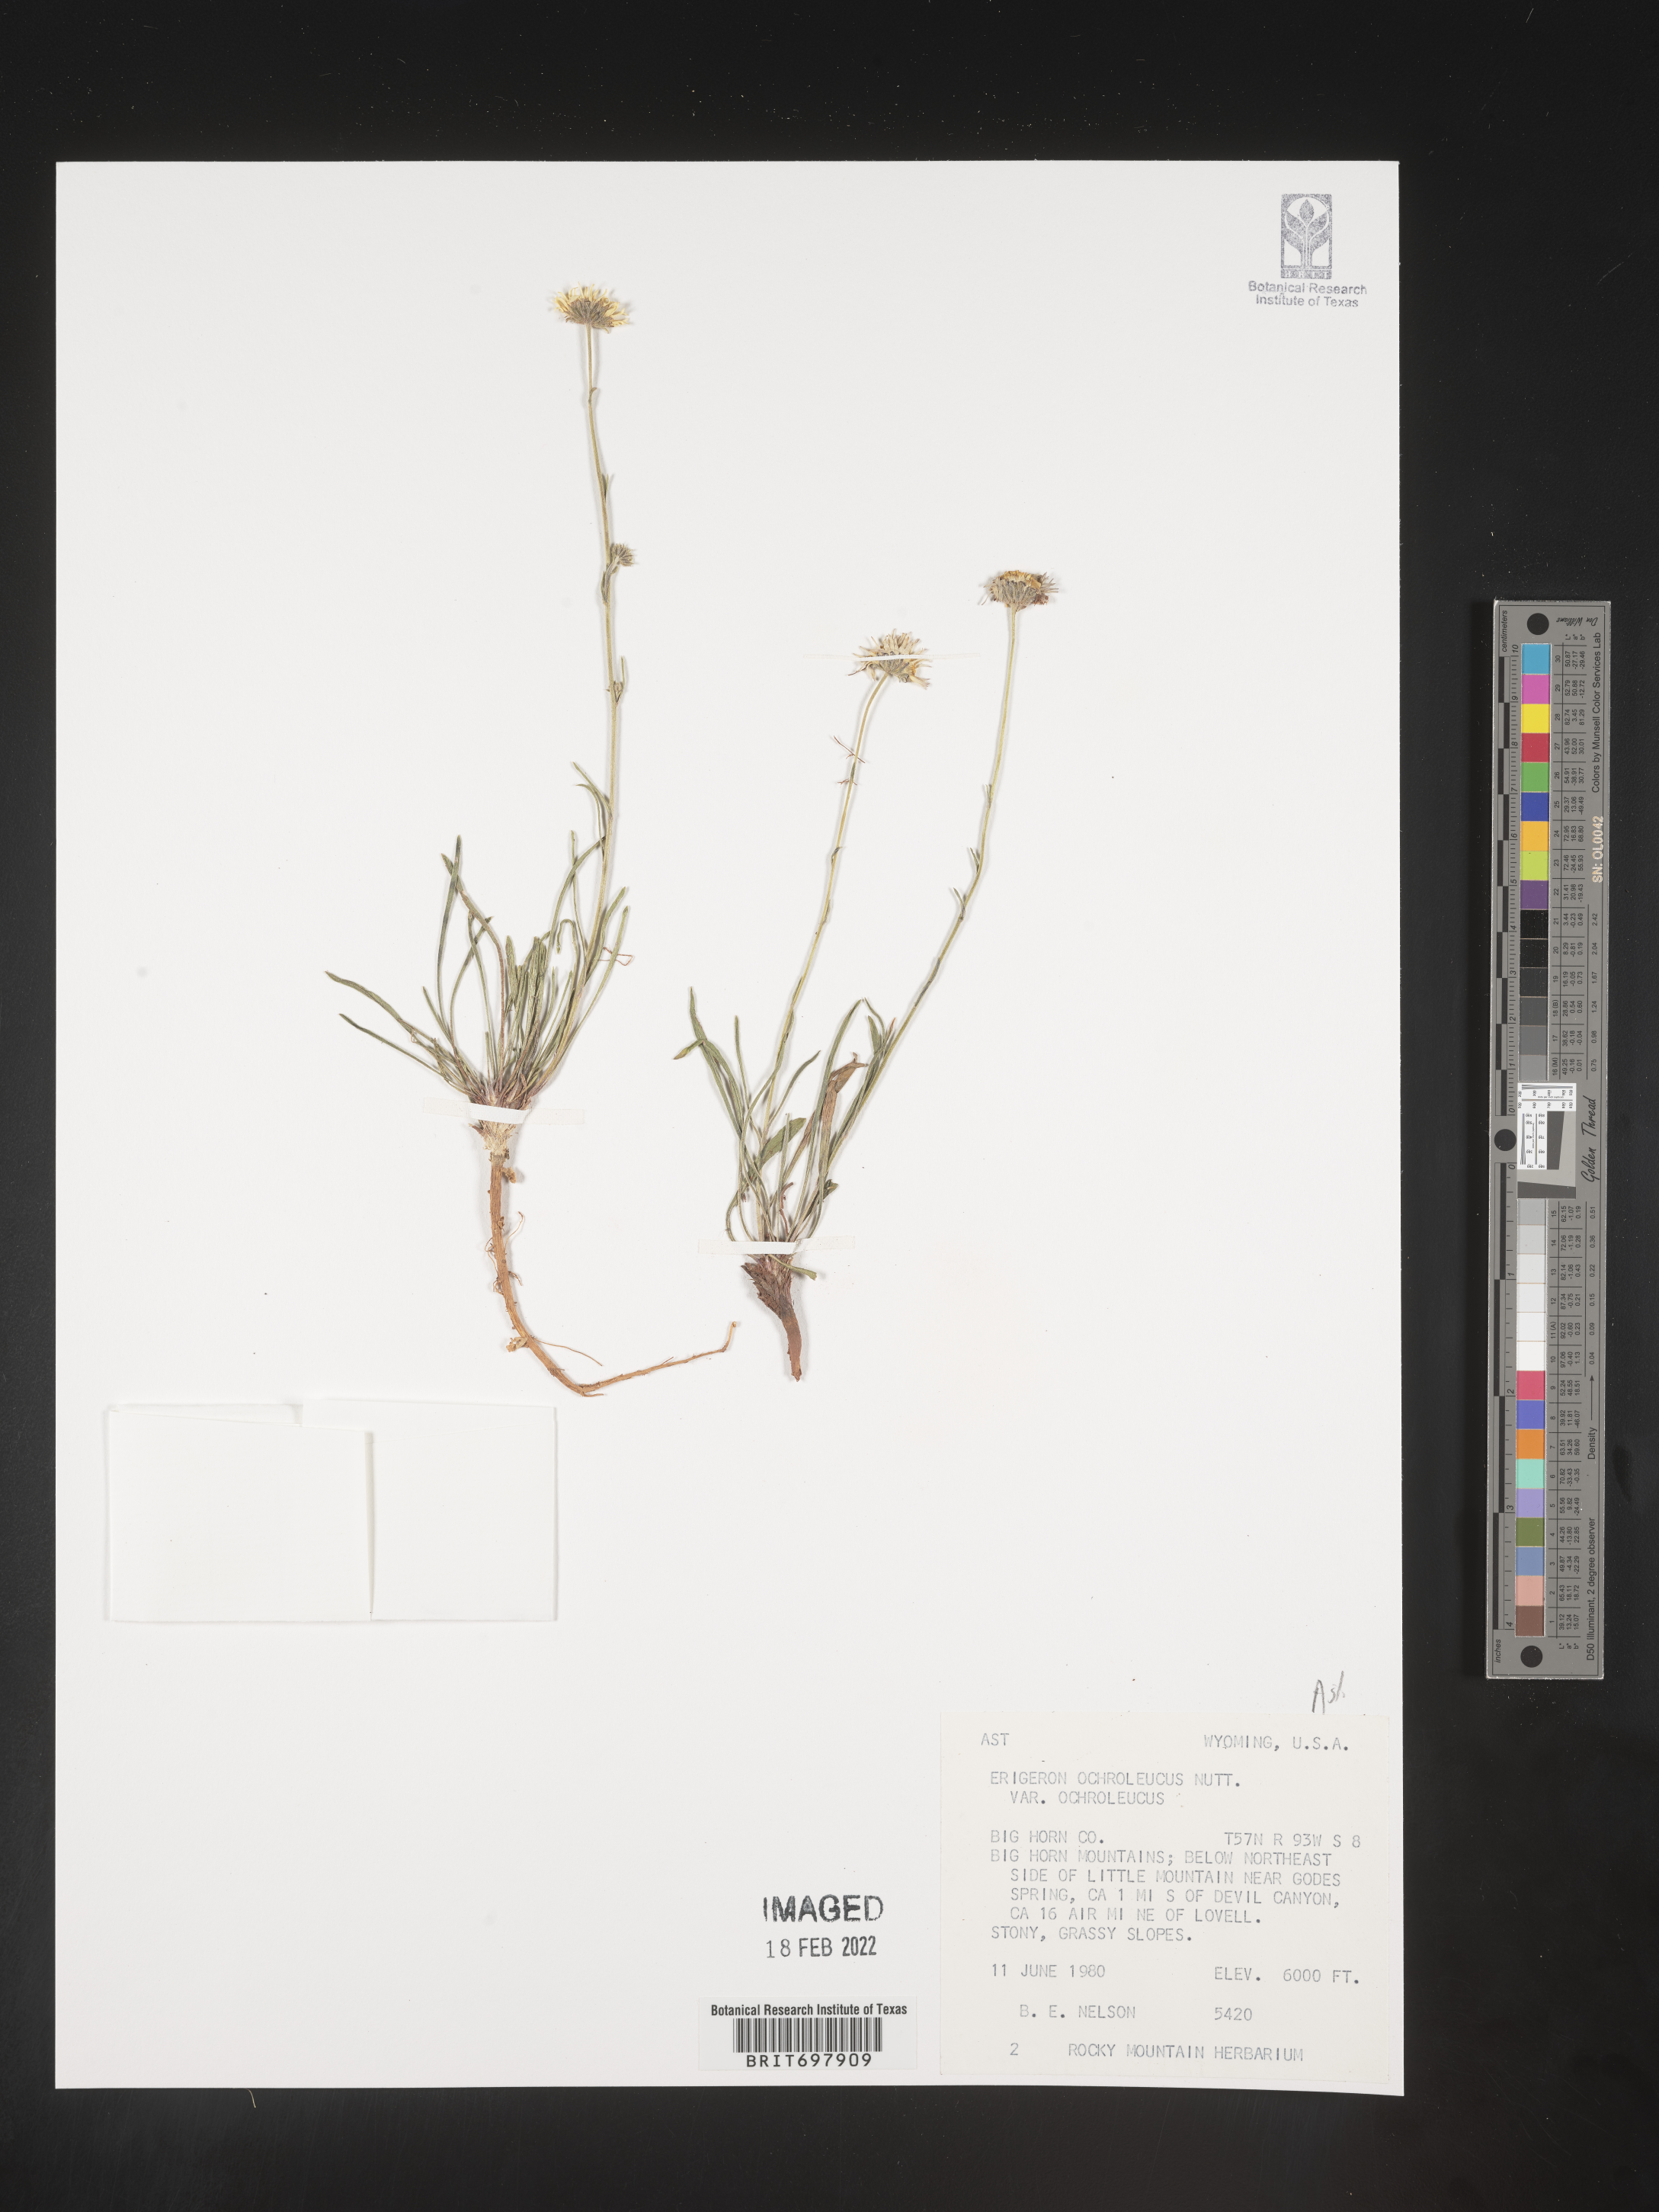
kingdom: Plantae
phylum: Tracheophyta
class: Magnoliopsida
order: Asterales
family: Asteraceae
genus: Erigeron
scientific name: Erigeron ochroleucus
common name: Buff fleabane
